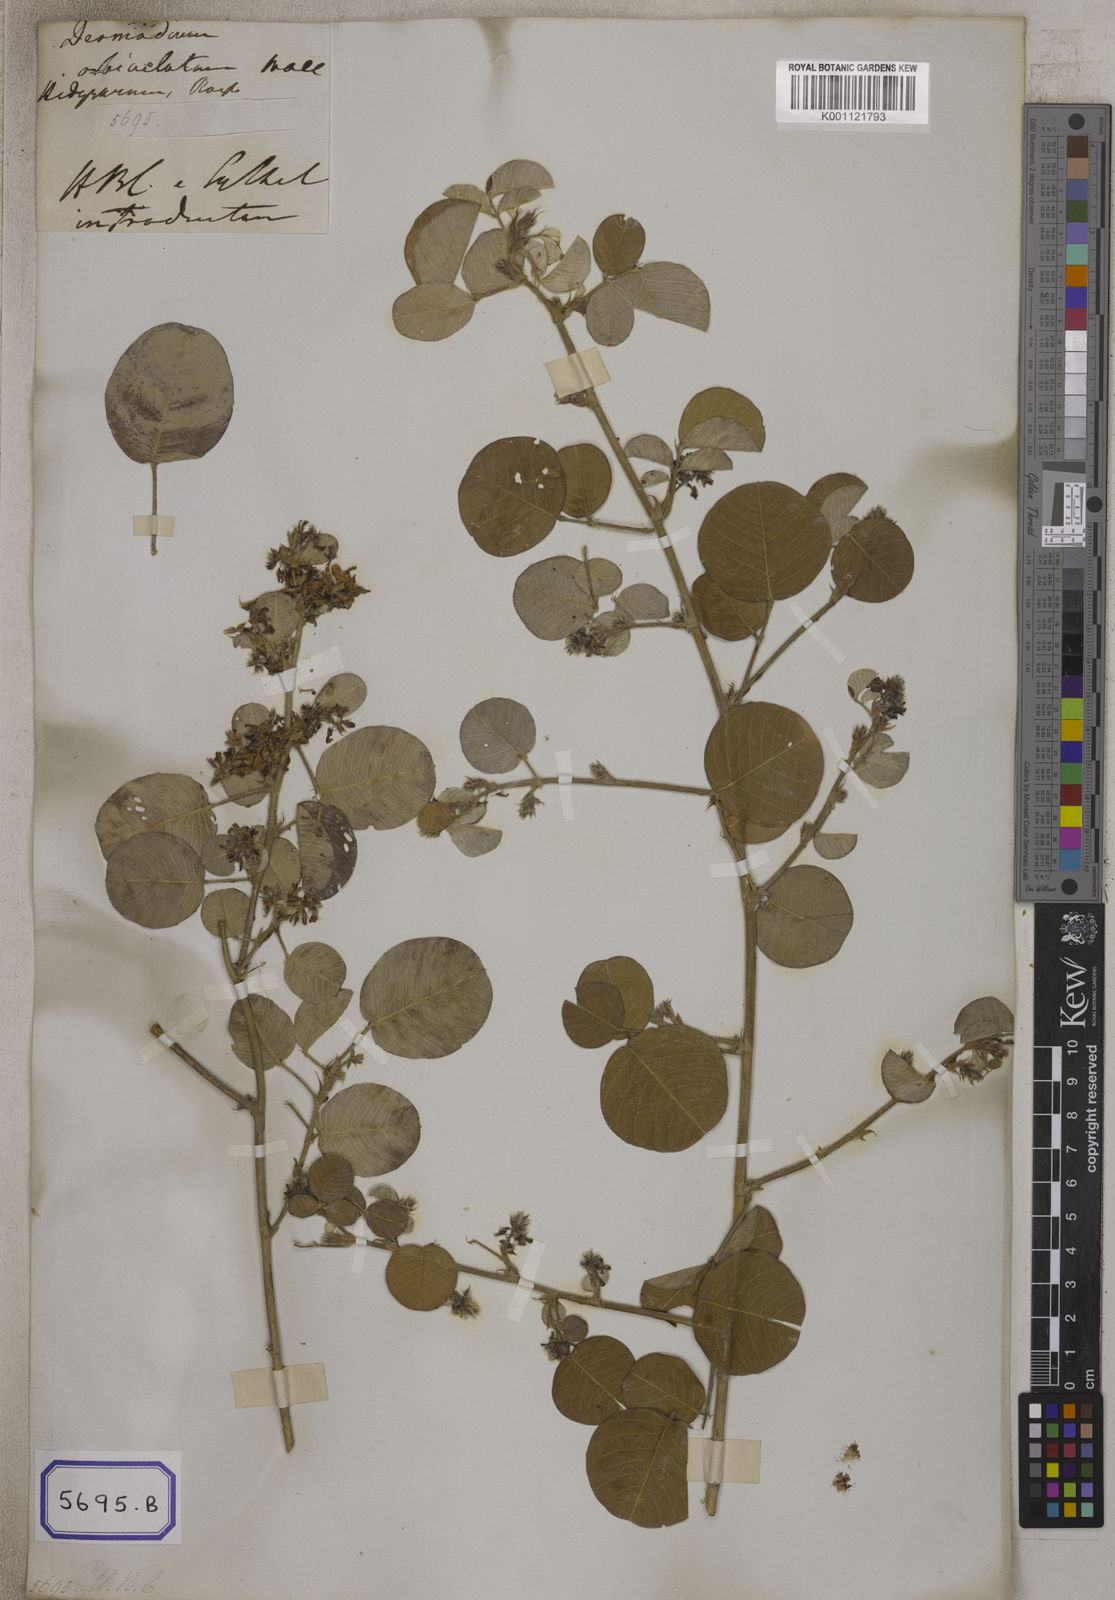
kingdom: Plantae
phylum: Tracheophyta
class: Magnoliopsida
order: Fabales
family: Fabaceae
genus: Desmodium
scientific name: Desmodium
